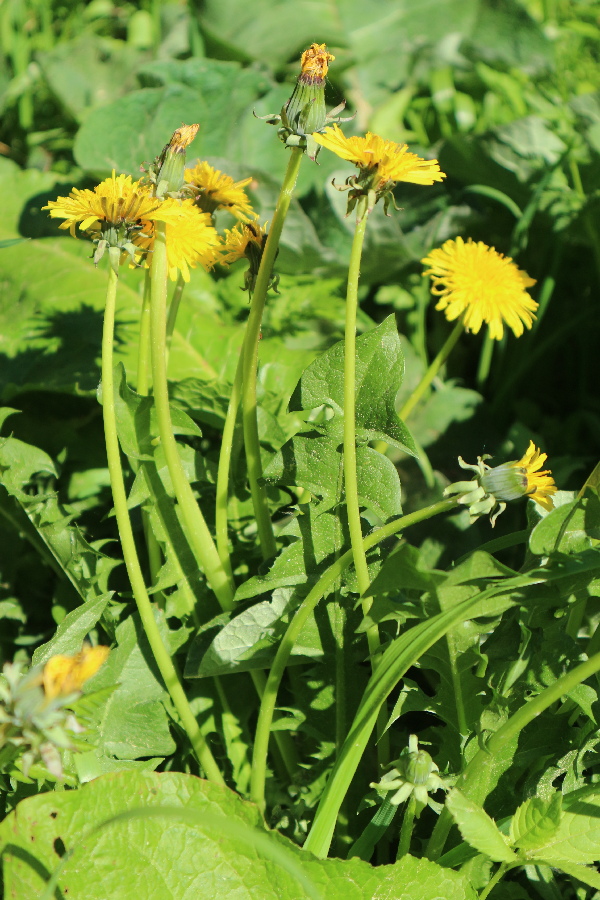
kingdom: Plantae
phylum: Tracheophyta
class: Magnoliopsida
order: Asterales
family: Asteraceae
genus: Taraxacum
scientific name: Taraxacum officinale
